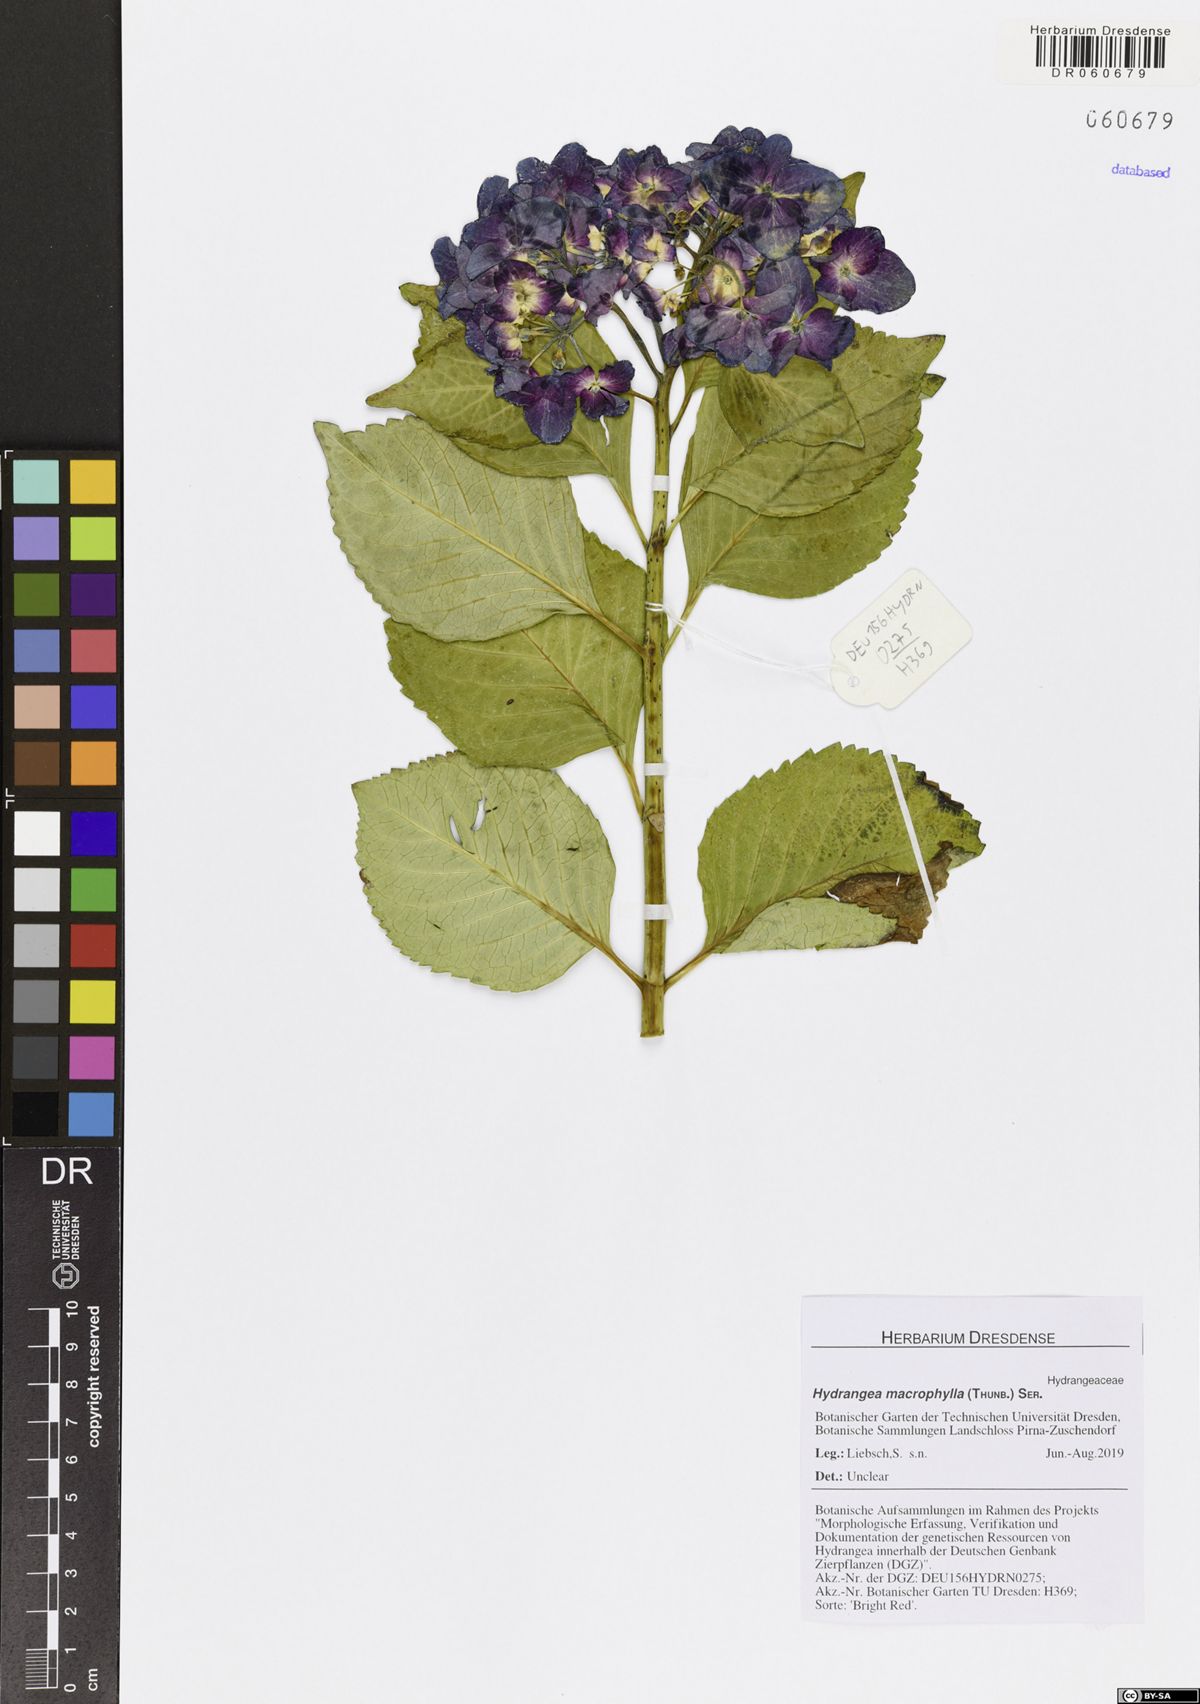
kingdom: Plantae
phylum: Tracheophyta
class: Magnoliopsida
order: Cornales
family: Hydrangeaceae
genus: Hydrangea
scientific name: Hydrangea macrophylla
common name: Hydrangea
